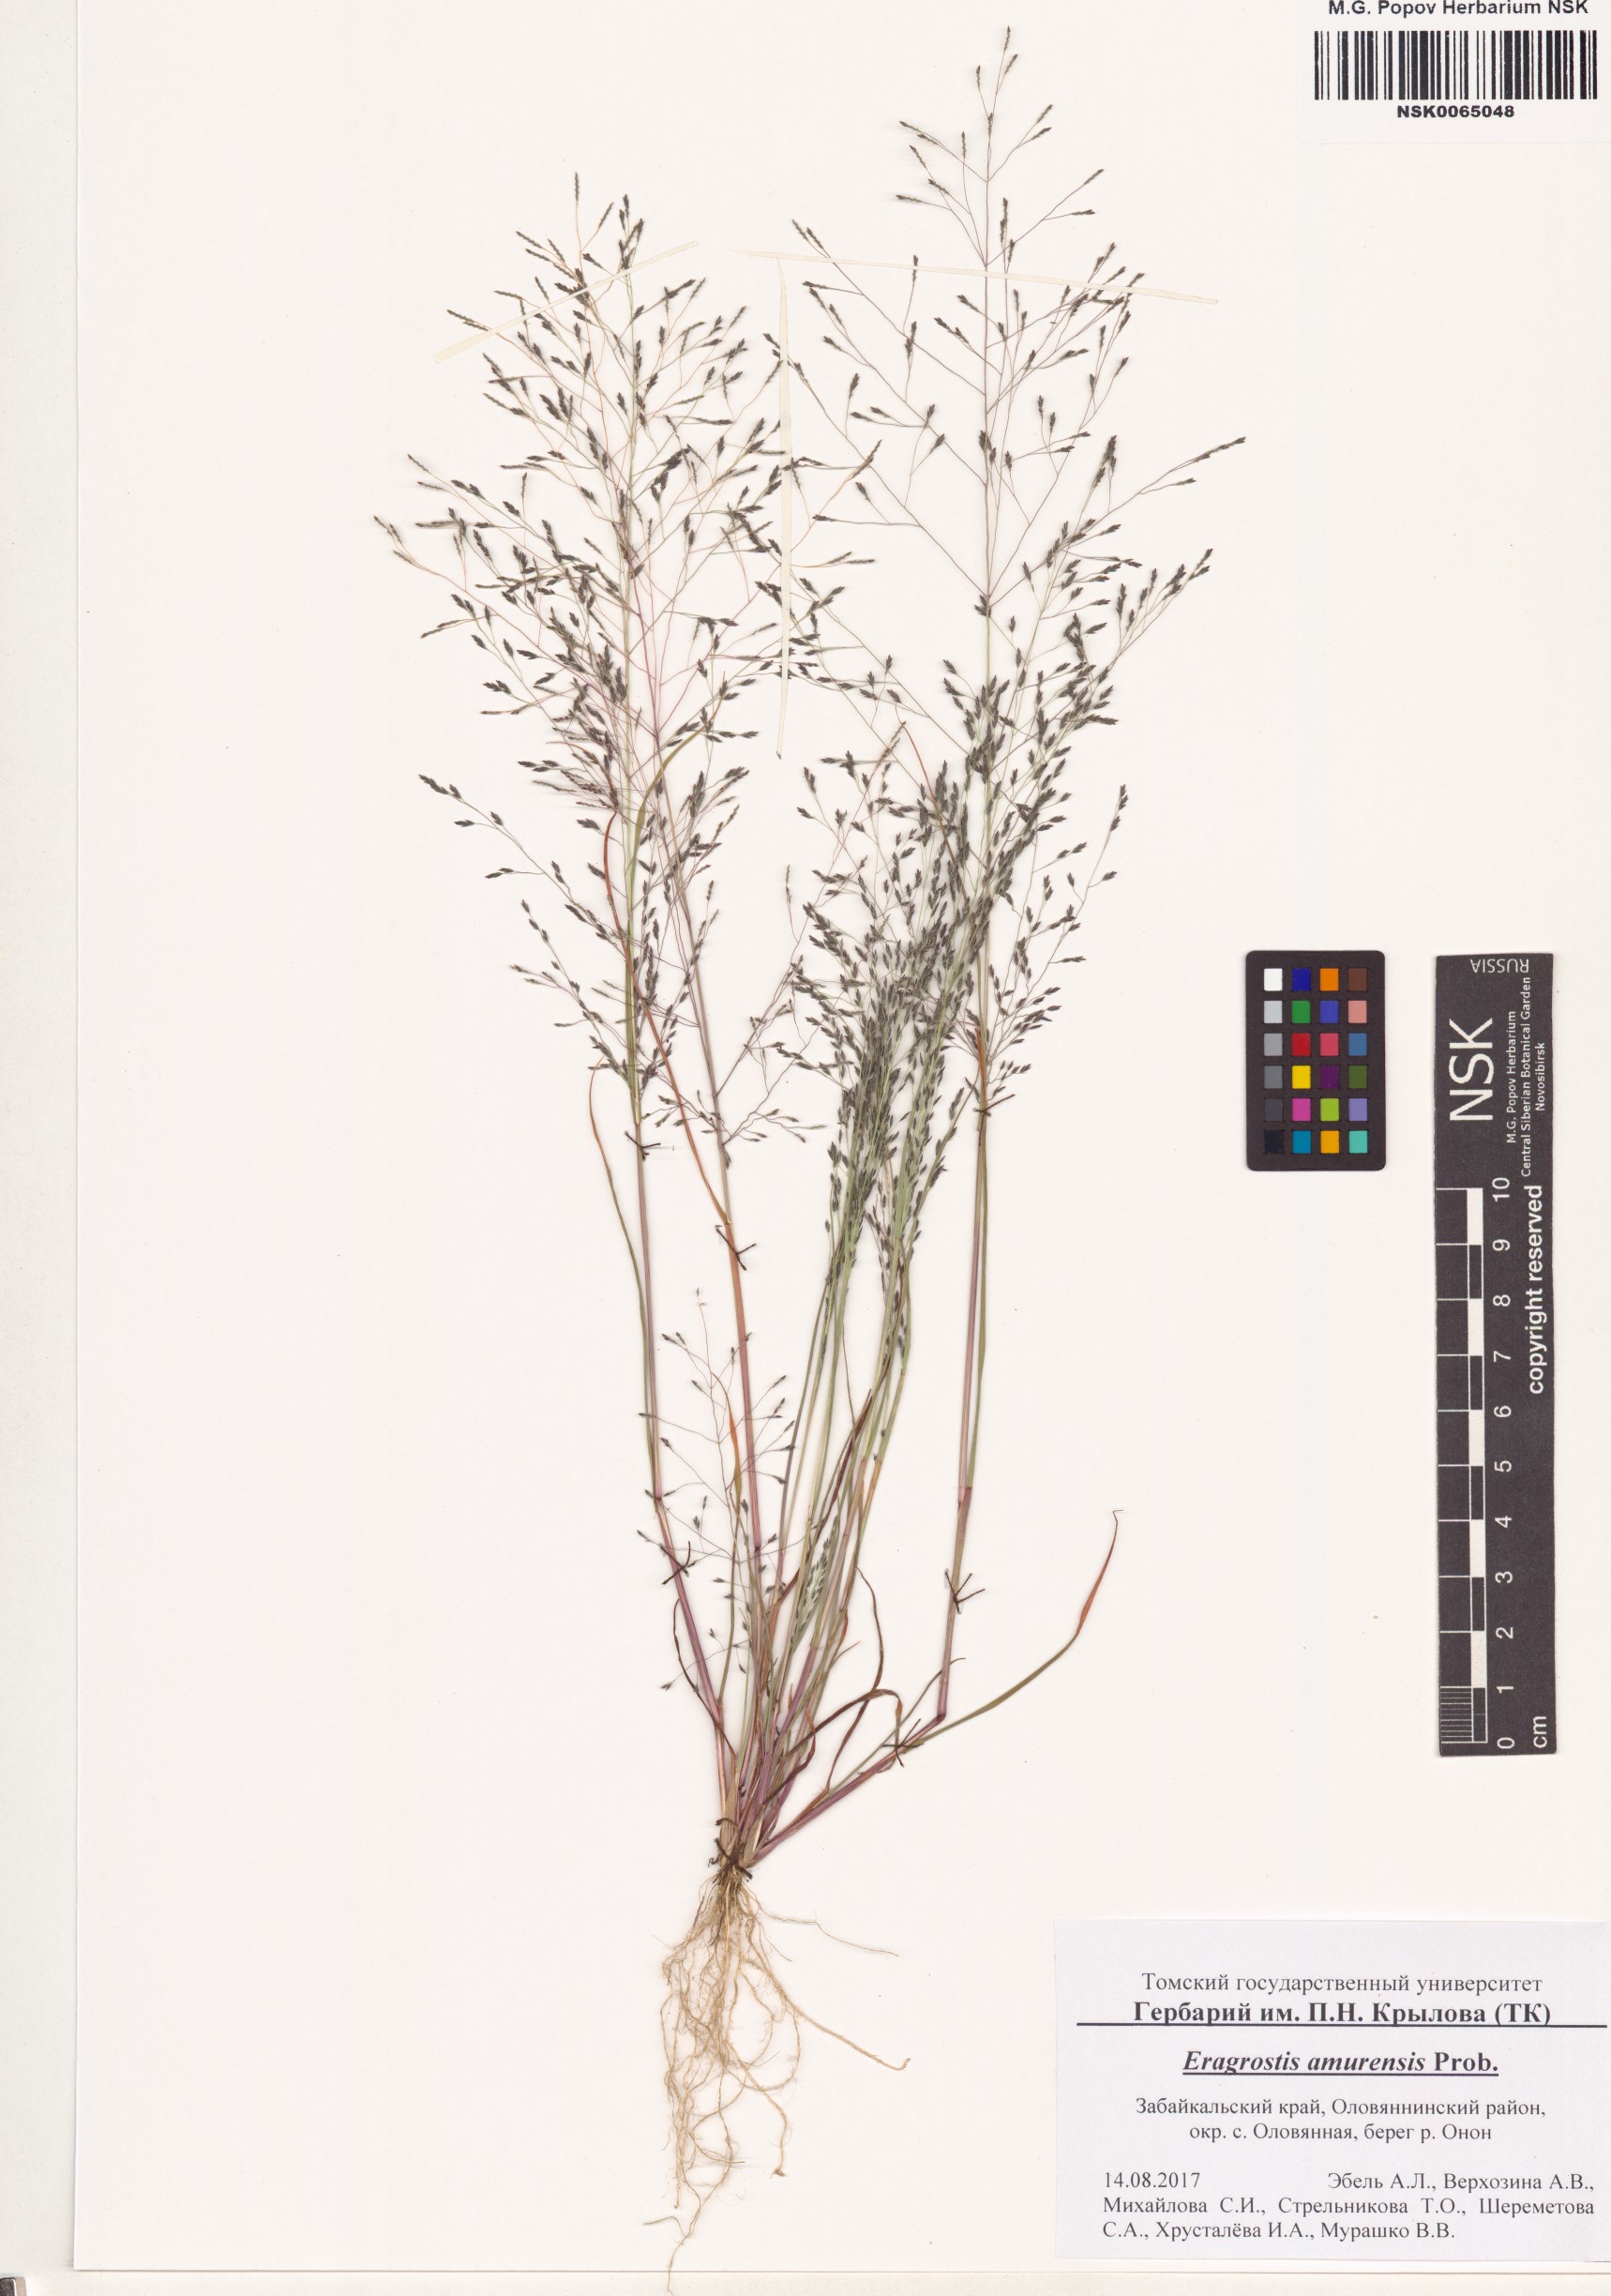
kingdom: Plantae
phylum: Tracheophyta
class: Liliopsida
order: Poales
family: Poaceae
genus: Eragrostis
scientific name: Eragrostis amurensis
